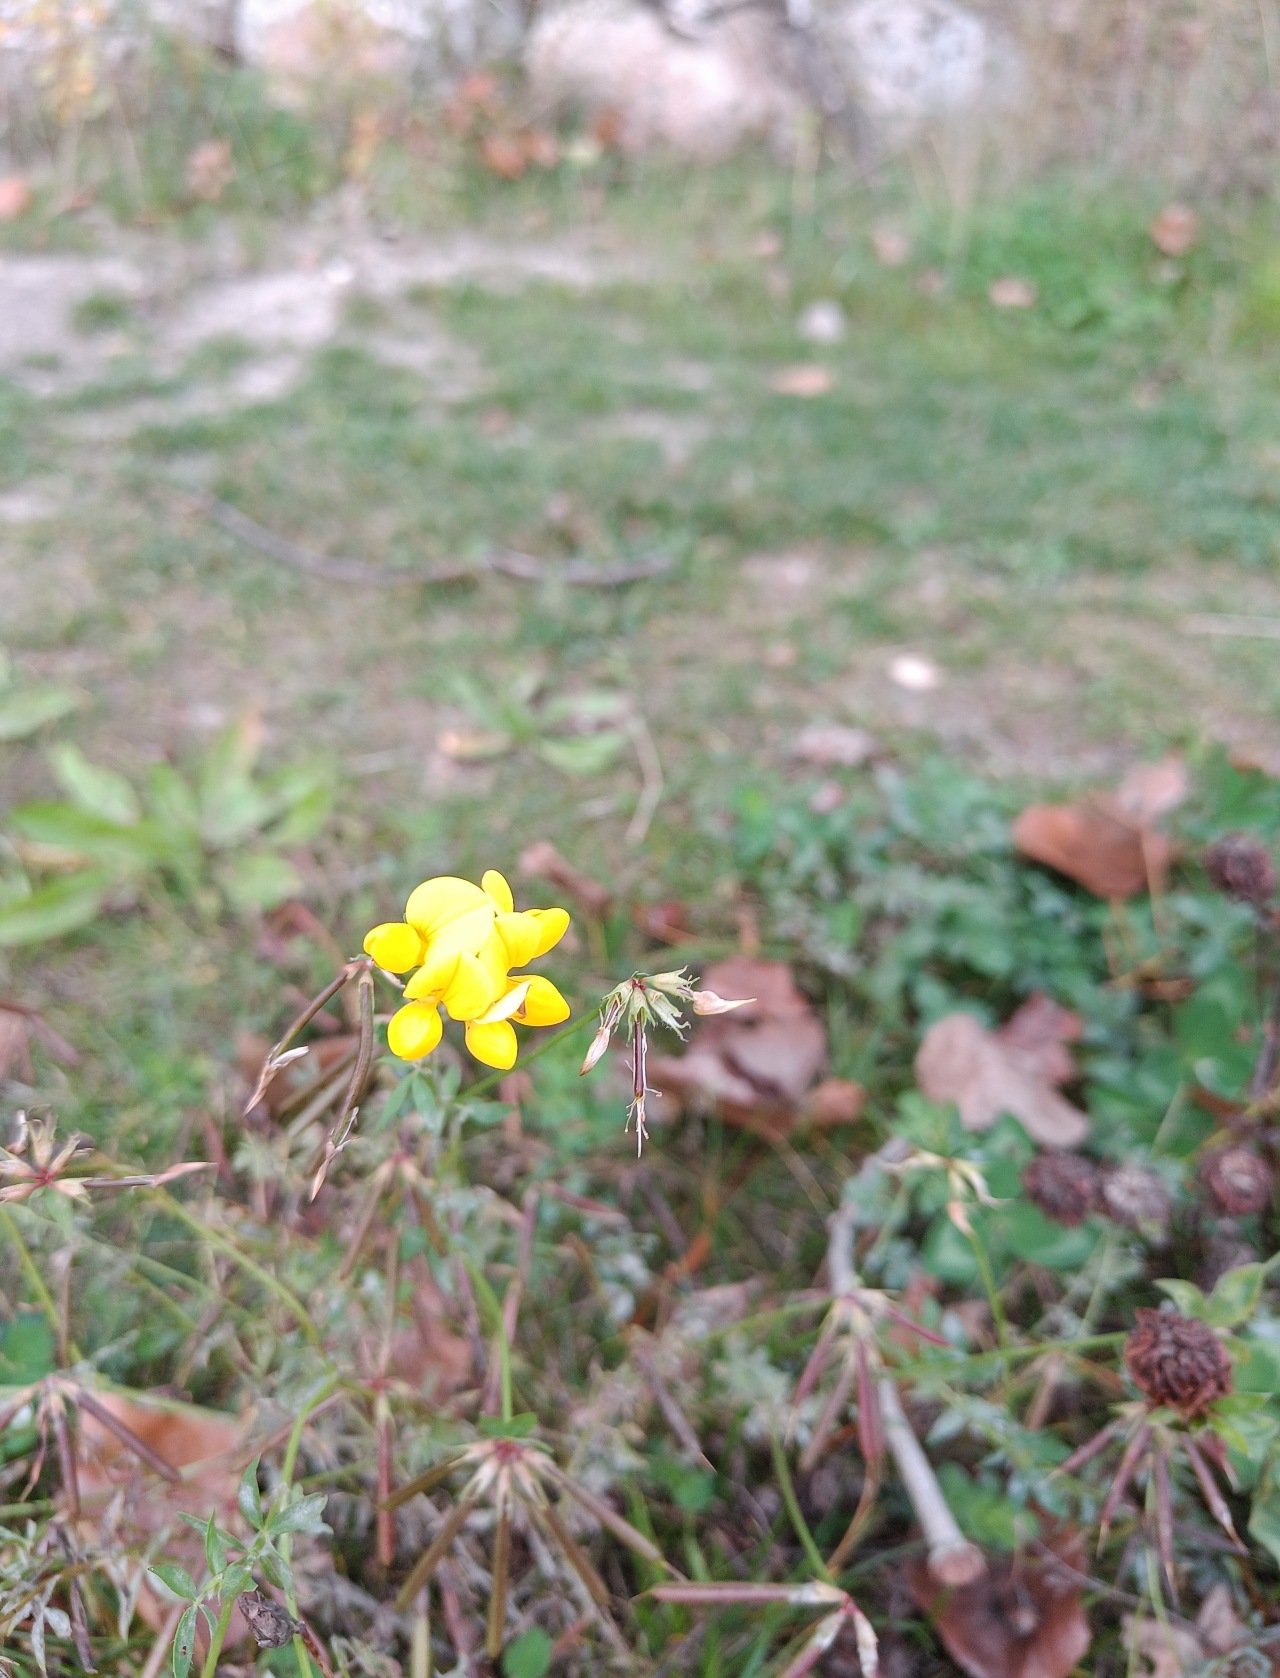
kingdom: Plantae
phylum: Tracheophyta
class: Magnoliopsida
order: Fabales
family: Fabaceae
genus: Lotus
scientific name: Lotus corniculatus
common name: Almindelig kællingetand
